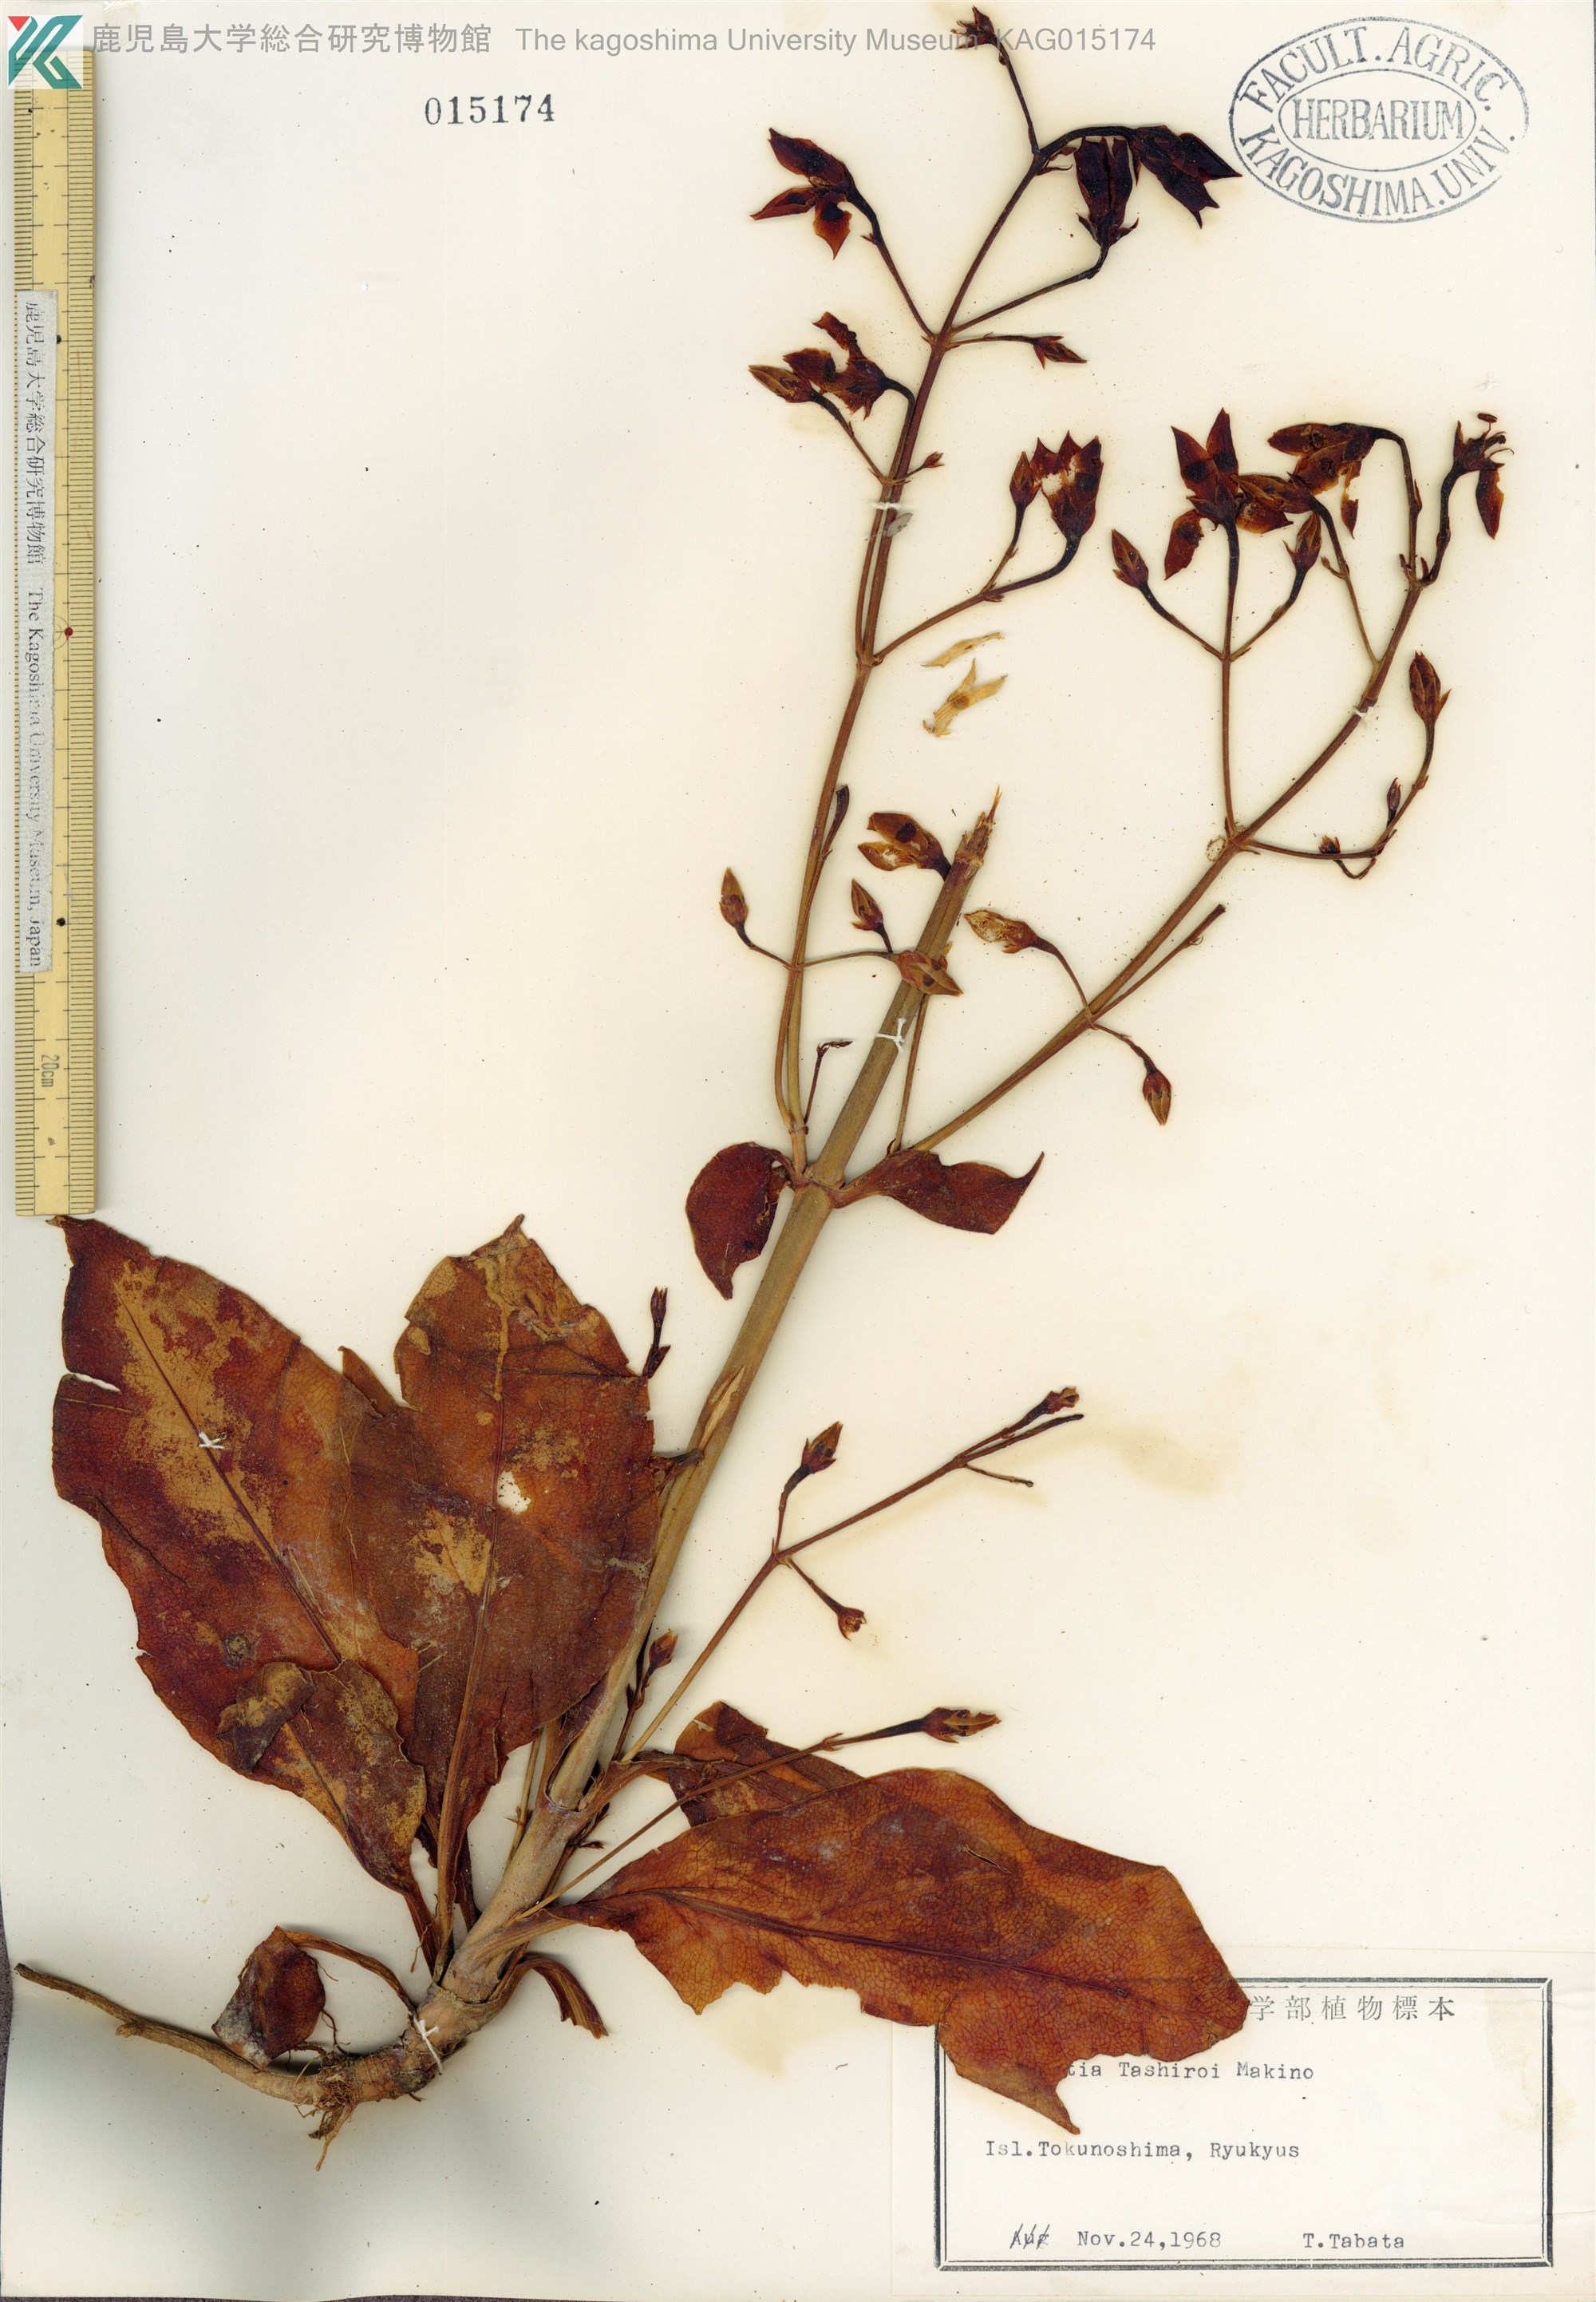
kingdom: Plantae
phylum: Tracheophyta
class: Magnoliopsida
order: Gentianales
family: Gentianaceae
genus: Swertia
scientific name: Swertia tashiroi
